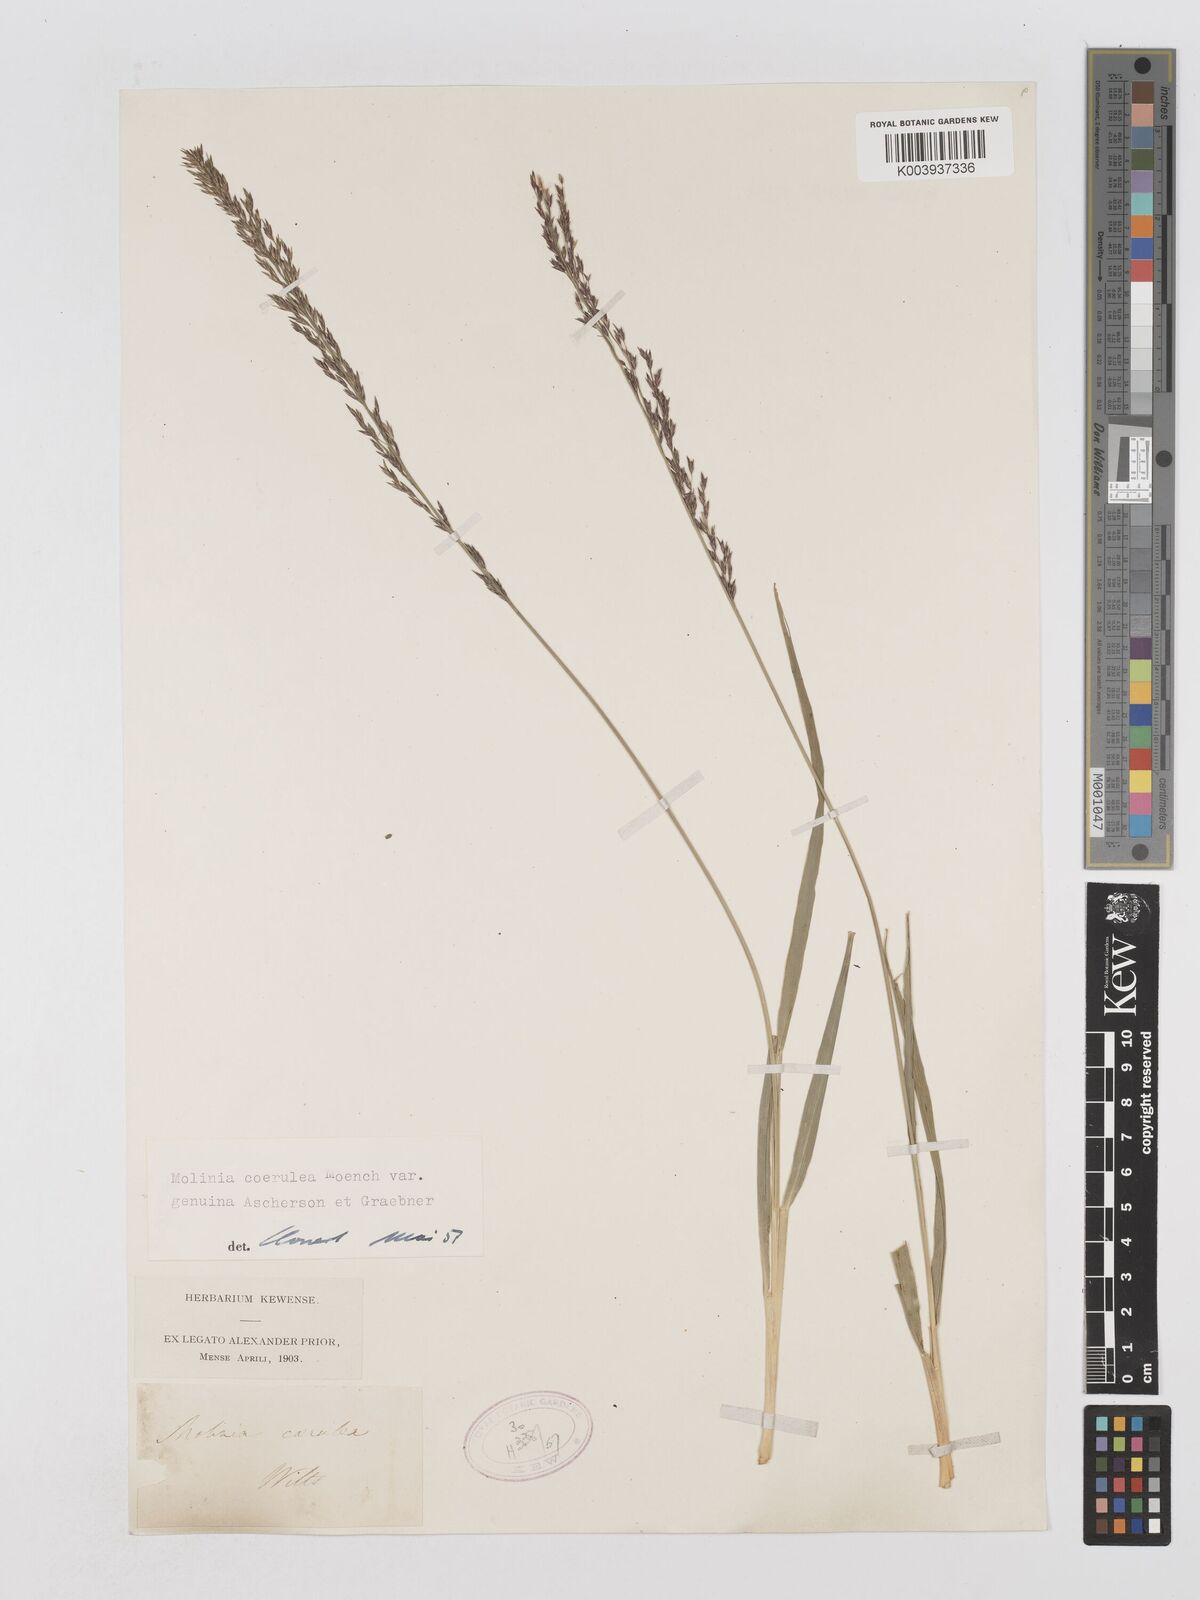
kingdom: Plantae
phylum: Tracheophyta
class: Liliopsida
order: Poales
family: Poaceae
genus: Molinia
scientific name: Molinia caerulea
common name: Purple moor-grass
